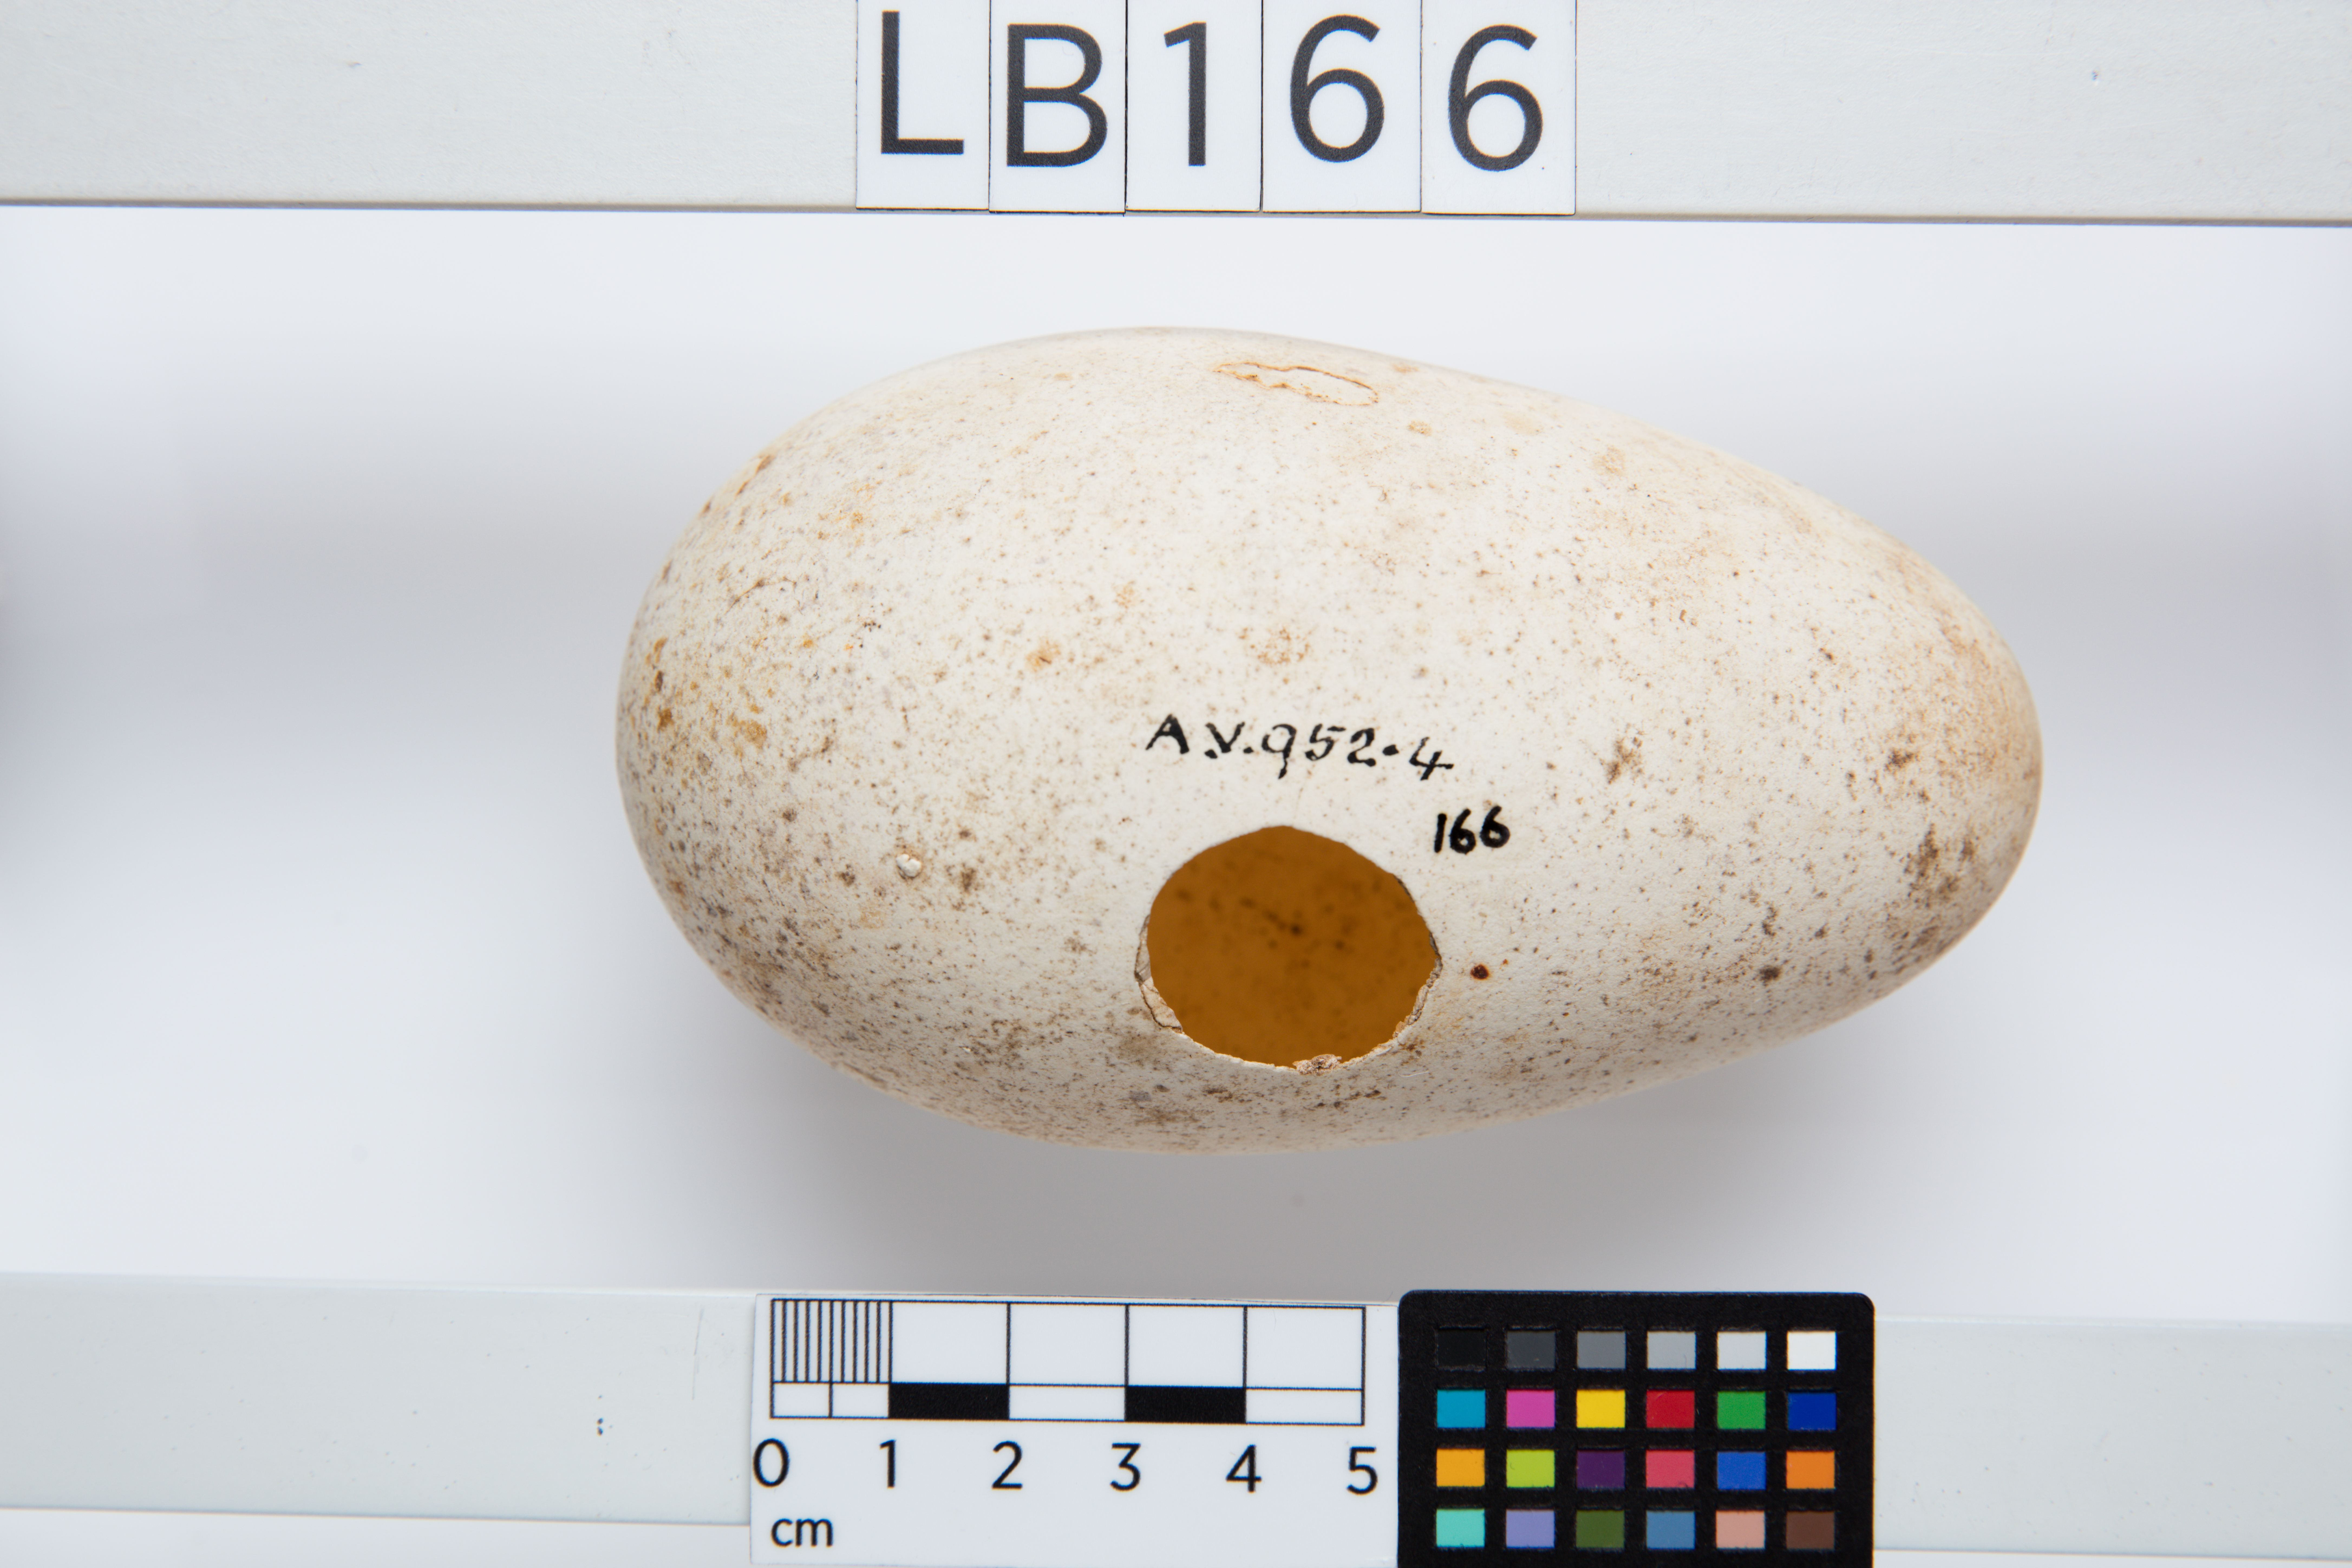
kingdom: Animalia
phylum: Chordata
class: Aves
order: Procellariiformes
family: Diomedeidae
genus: Diomedea
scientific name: Diomedea antipodensis
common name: Antipodean albatross
